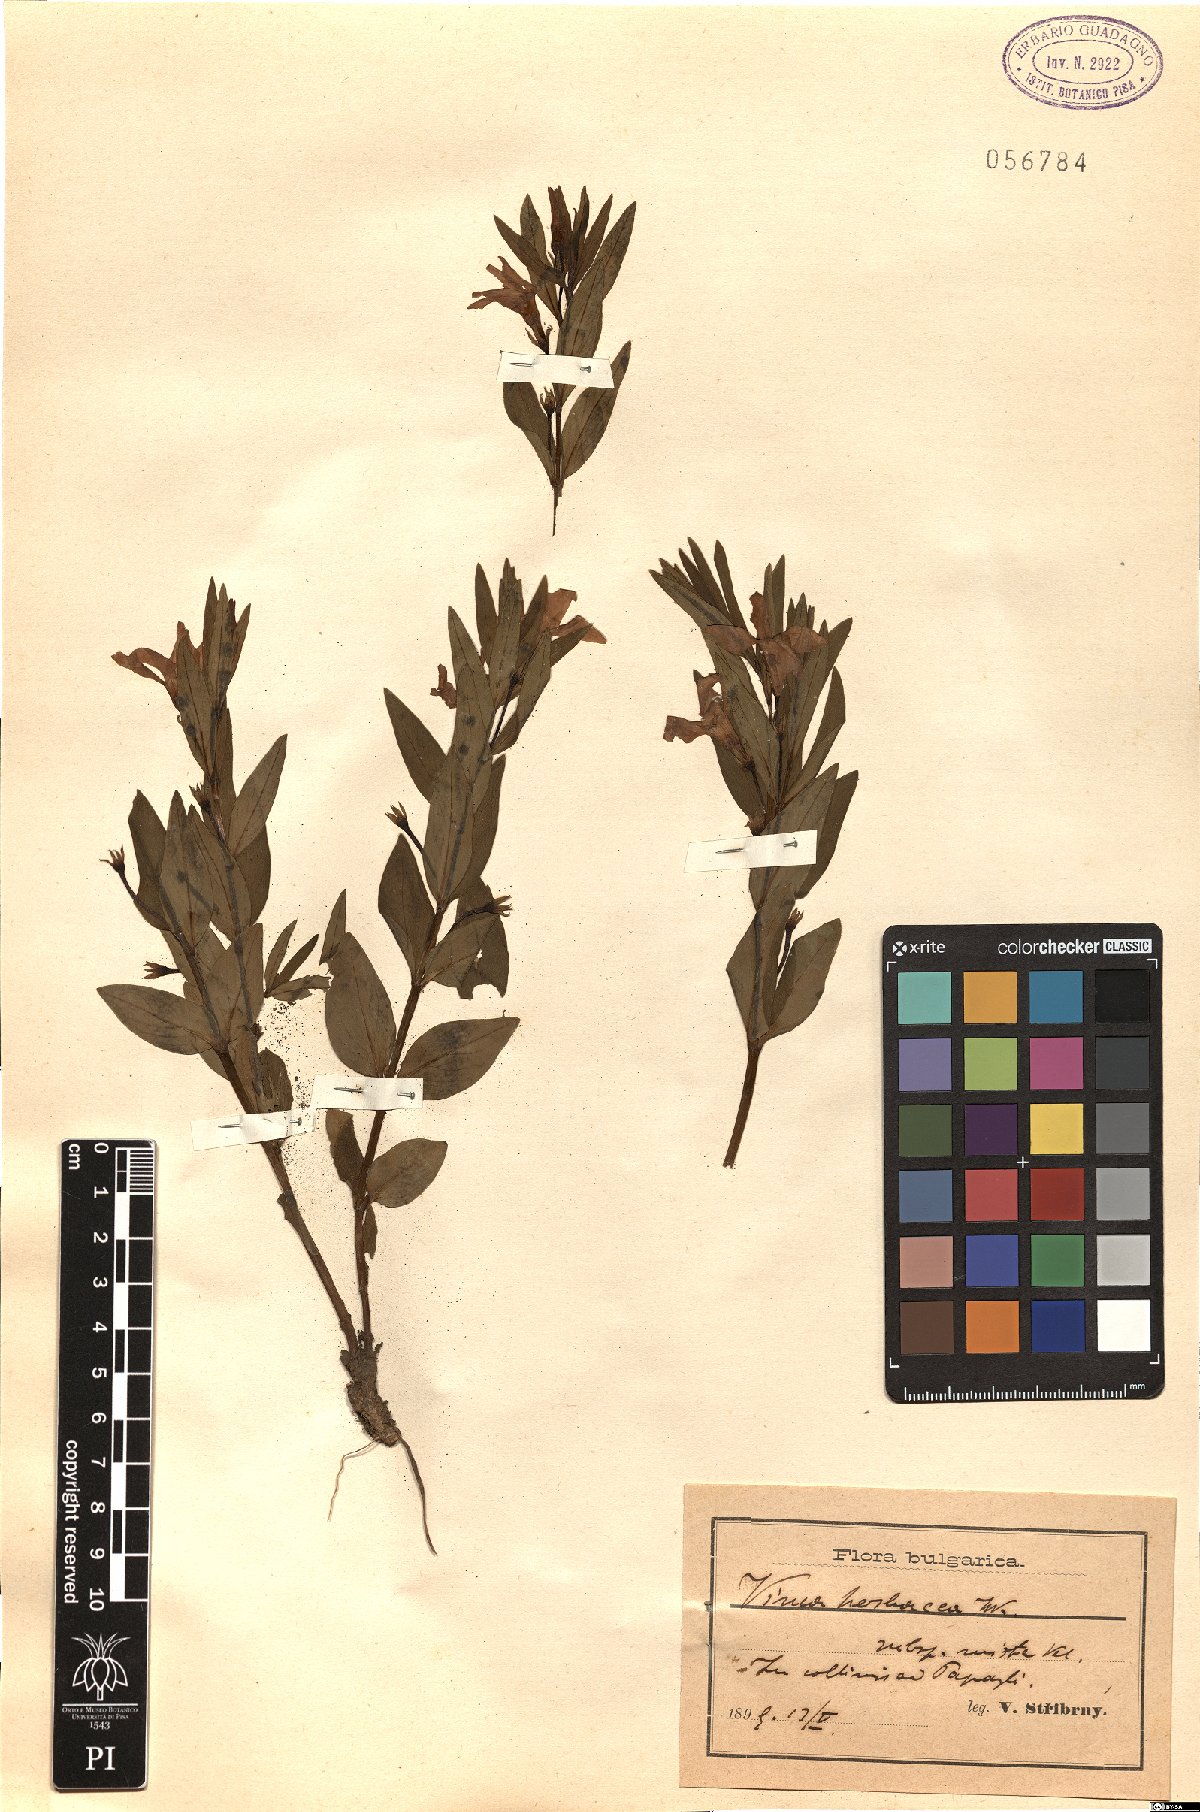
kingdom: Plantae
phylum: Tracheophyta
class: Magnoliopsida
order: Gentianales
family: Apocynaceae
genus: Vinca
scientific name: Vinca herbacea
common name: Herbaceous periwinkle
